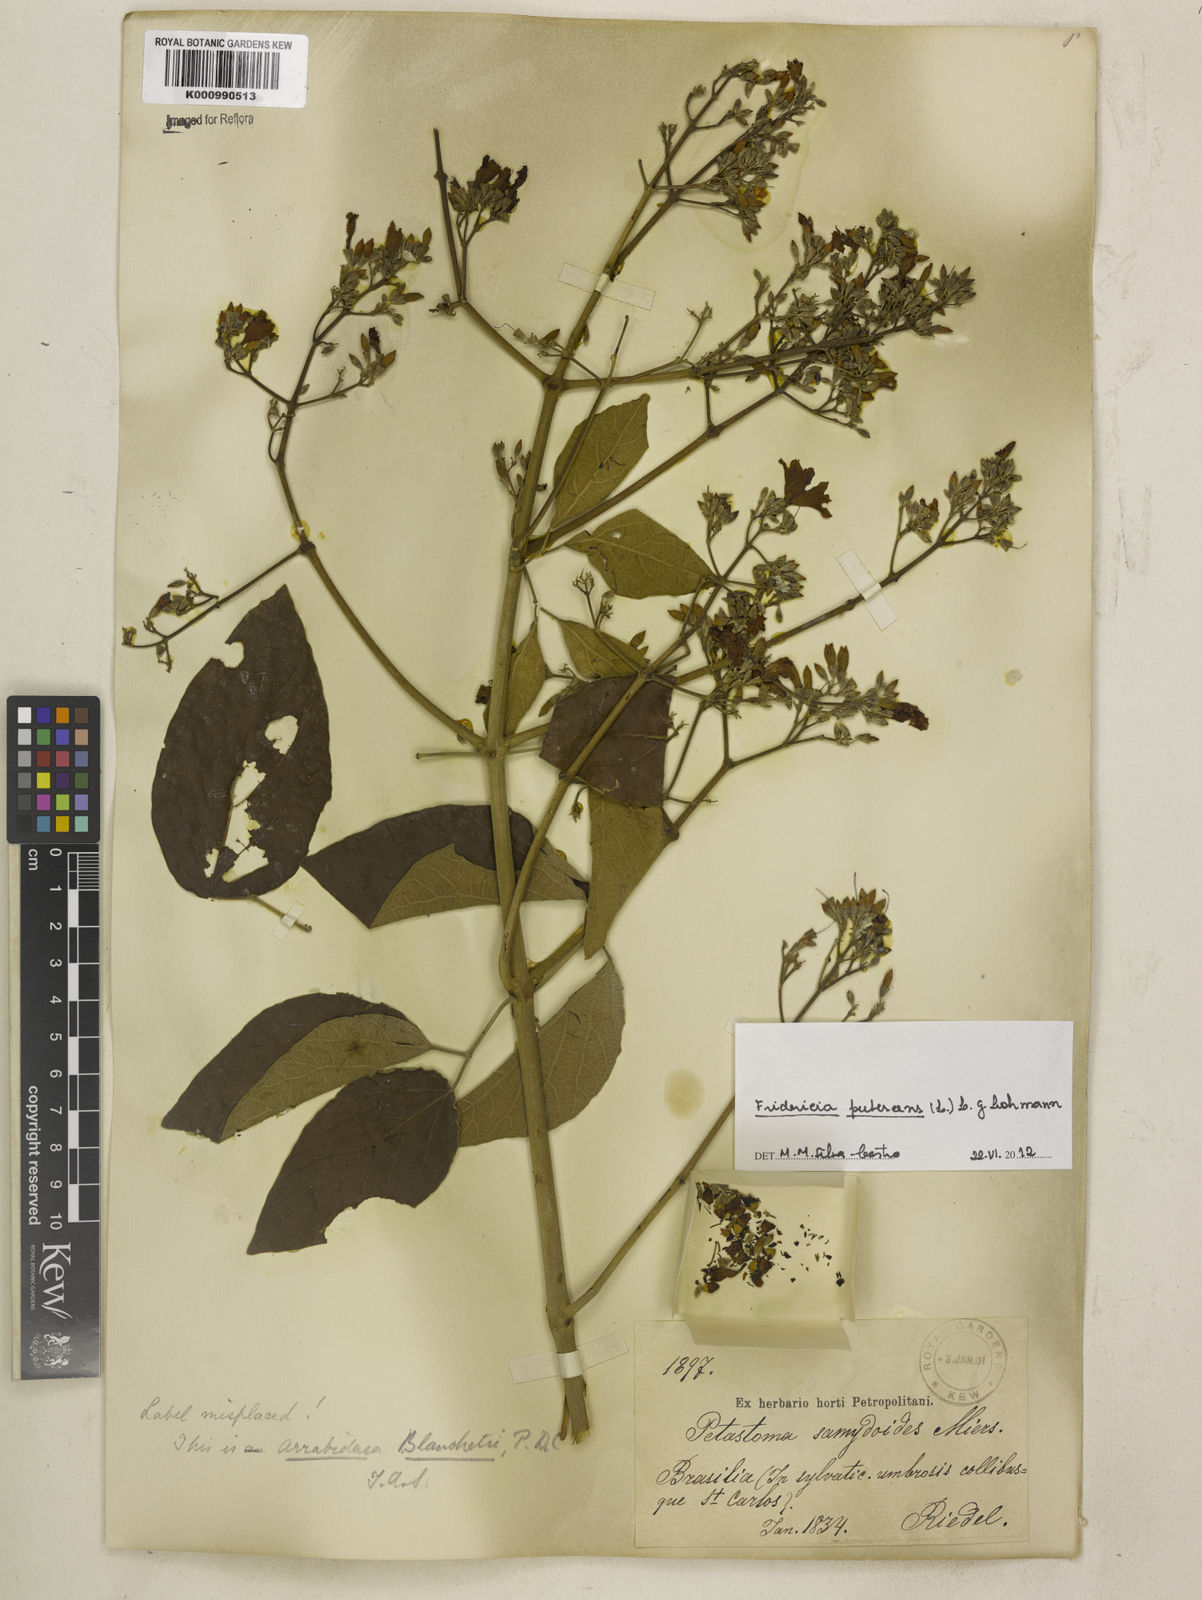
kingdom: Plantae
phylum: Tracheophyta
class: Magnoliopsida
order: Lamiales
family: Bignoniaceae
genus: Fridericia
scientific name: Fridericia pubescens
